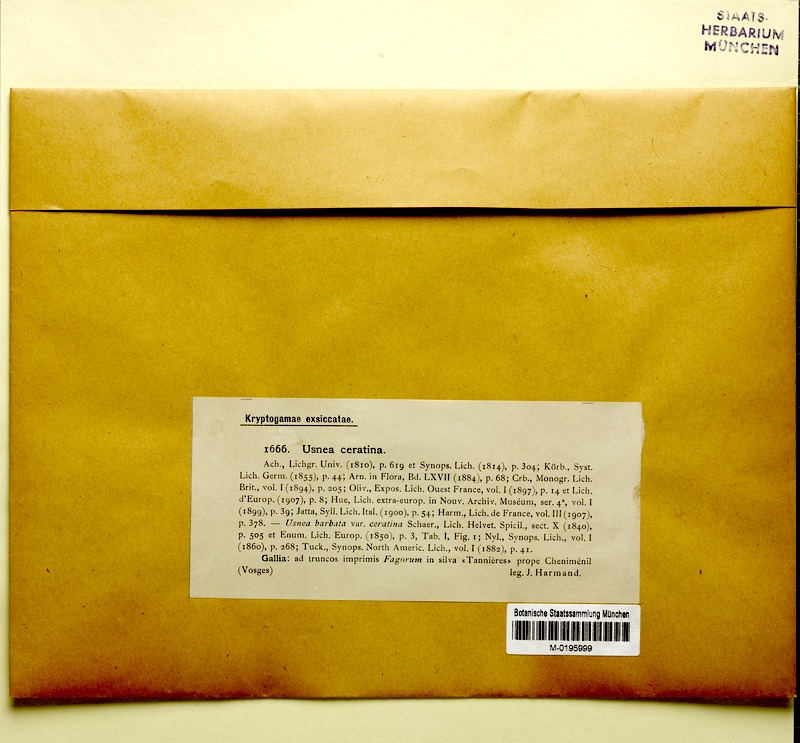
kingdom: Fungi
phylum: Ascomycota
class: Lecanoromycetes
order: Lecanorales
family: Parmeliaceae
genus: Usnea
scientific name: Usnea ceratina
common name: Warty beard lichen
